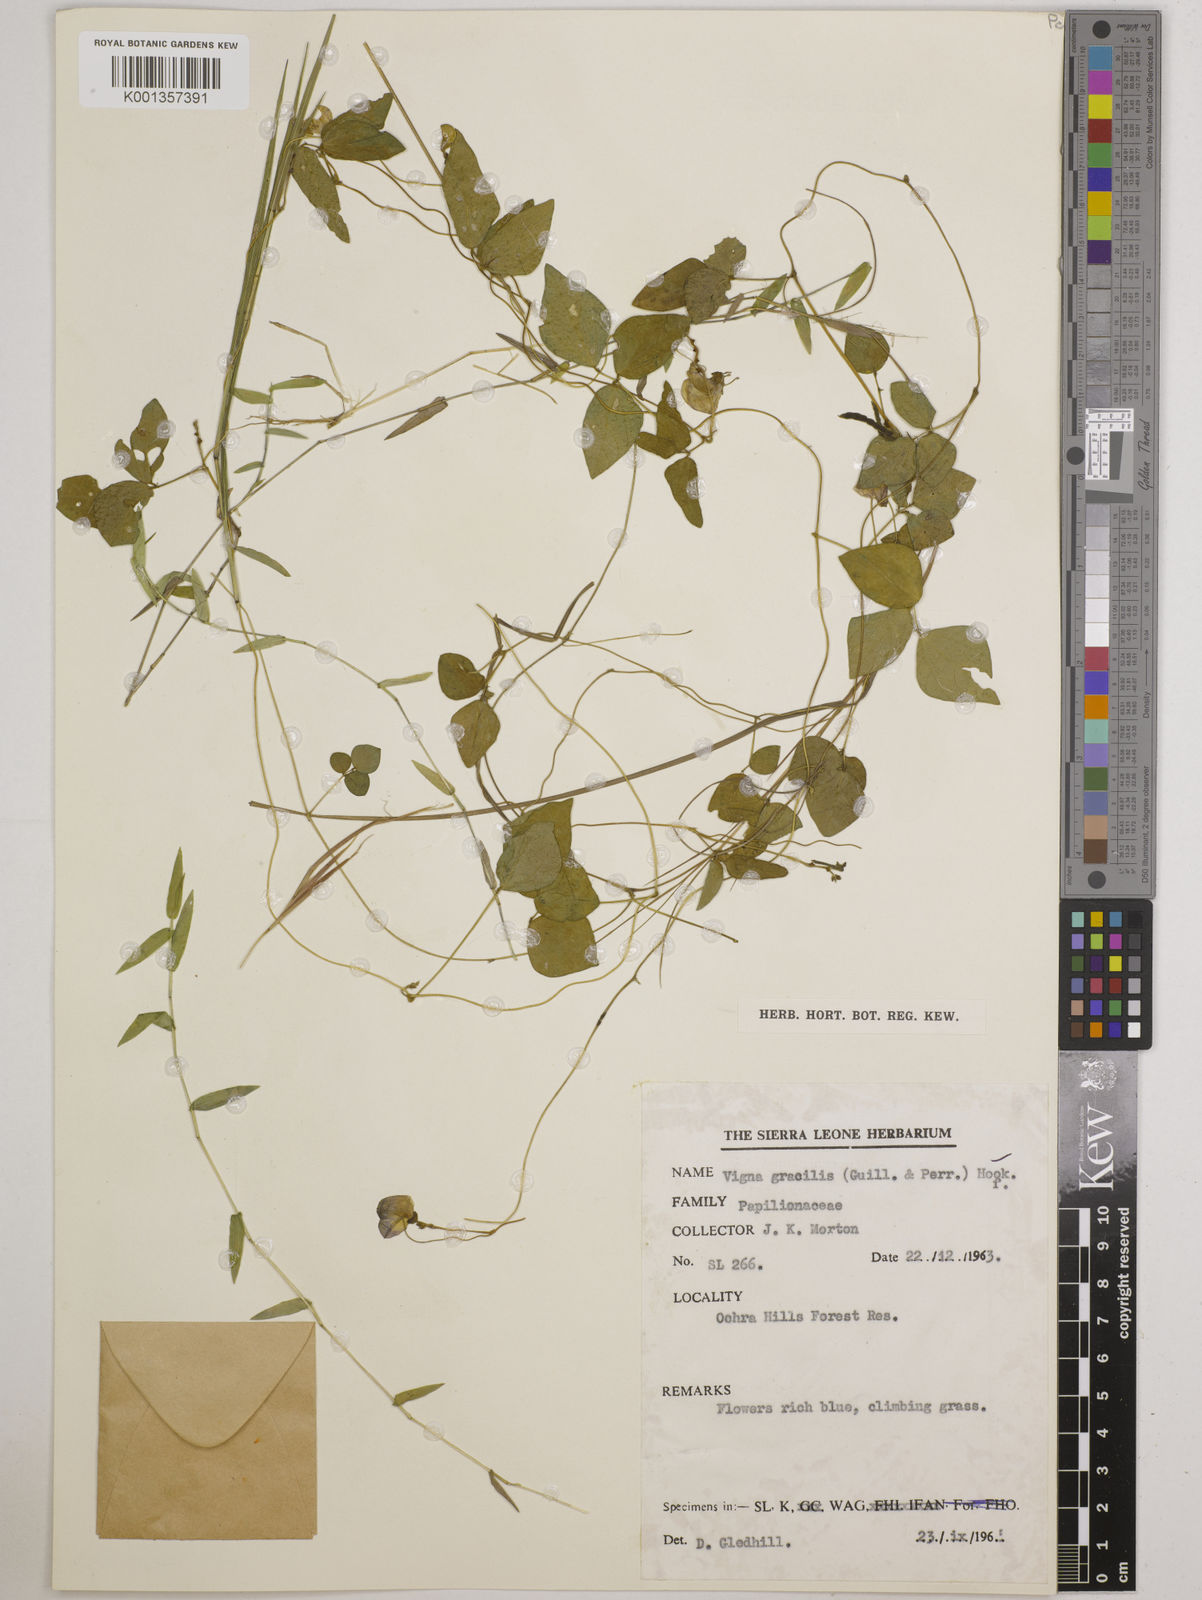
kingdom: Plantae
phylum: Tracheophyta
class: Magnoliopsida
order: Fabales
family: Fabaceae
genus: Vigna
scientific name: Vigna gracilis
